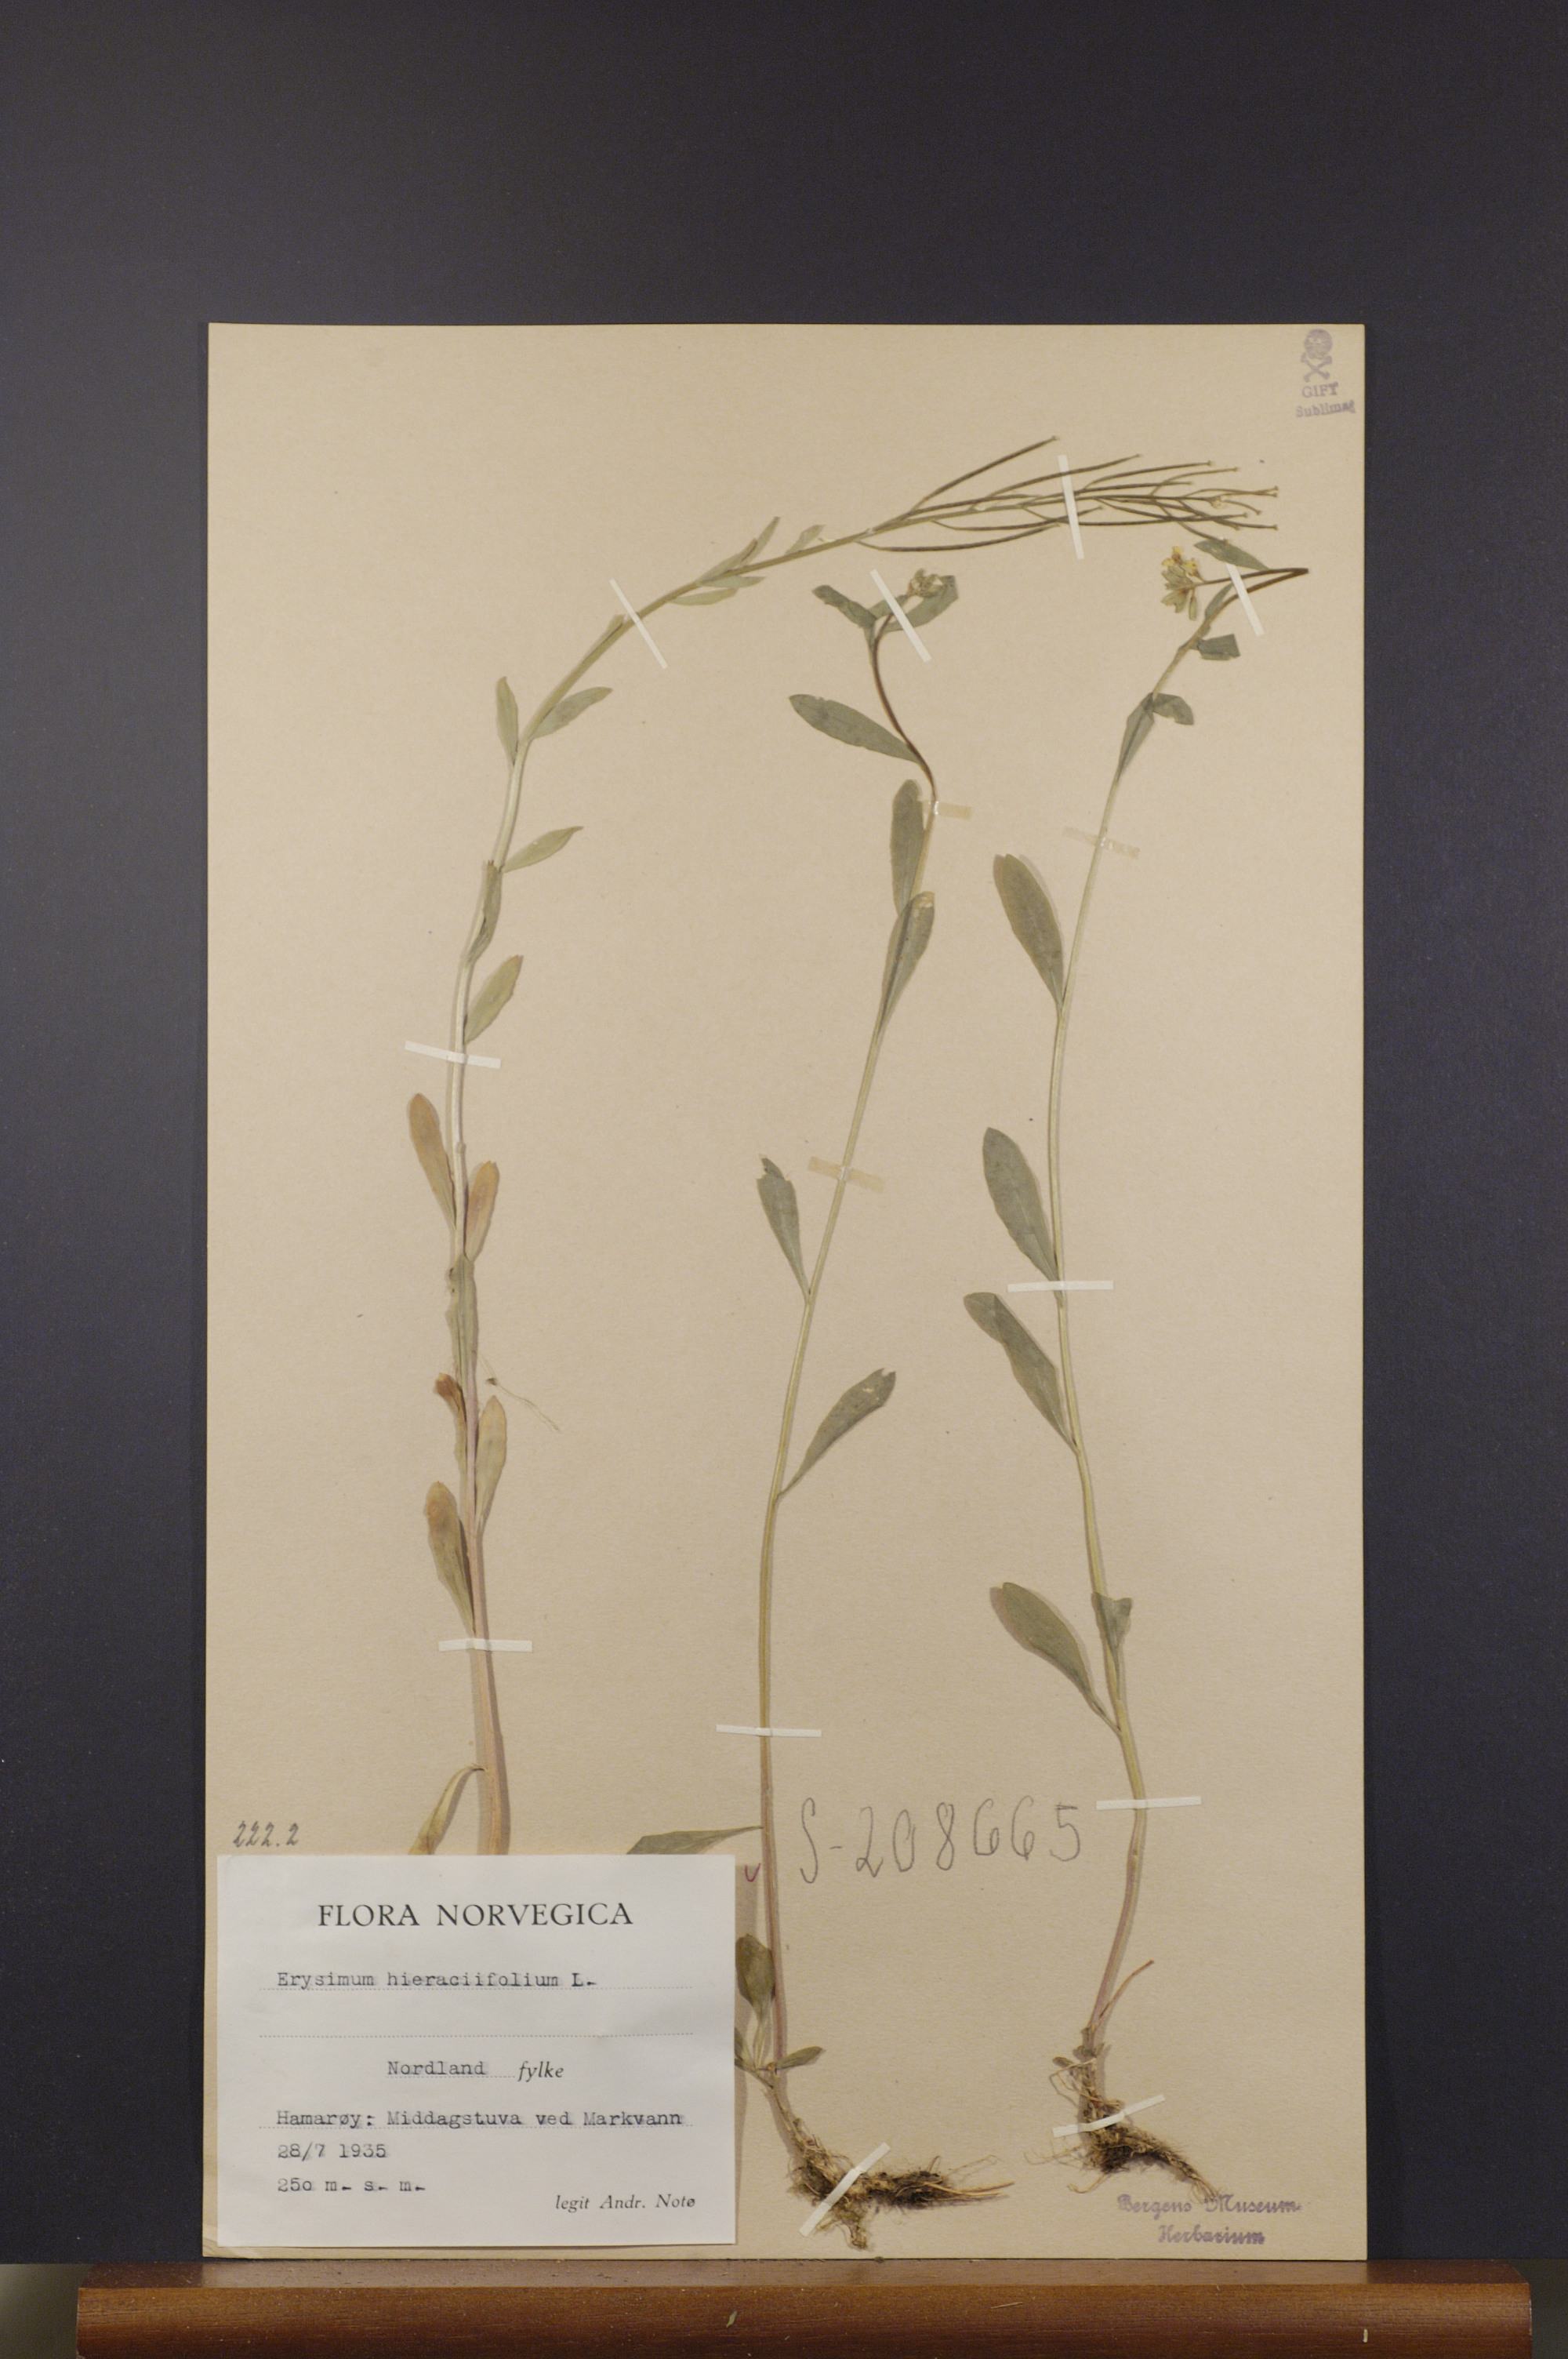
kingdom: Plantae
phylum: Tracheophyta
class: Magnoliopsida
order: Brassicales
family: Brassicaceae
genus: Erysimum
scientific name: Erysimum hieraciifolium
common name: European wallflower
